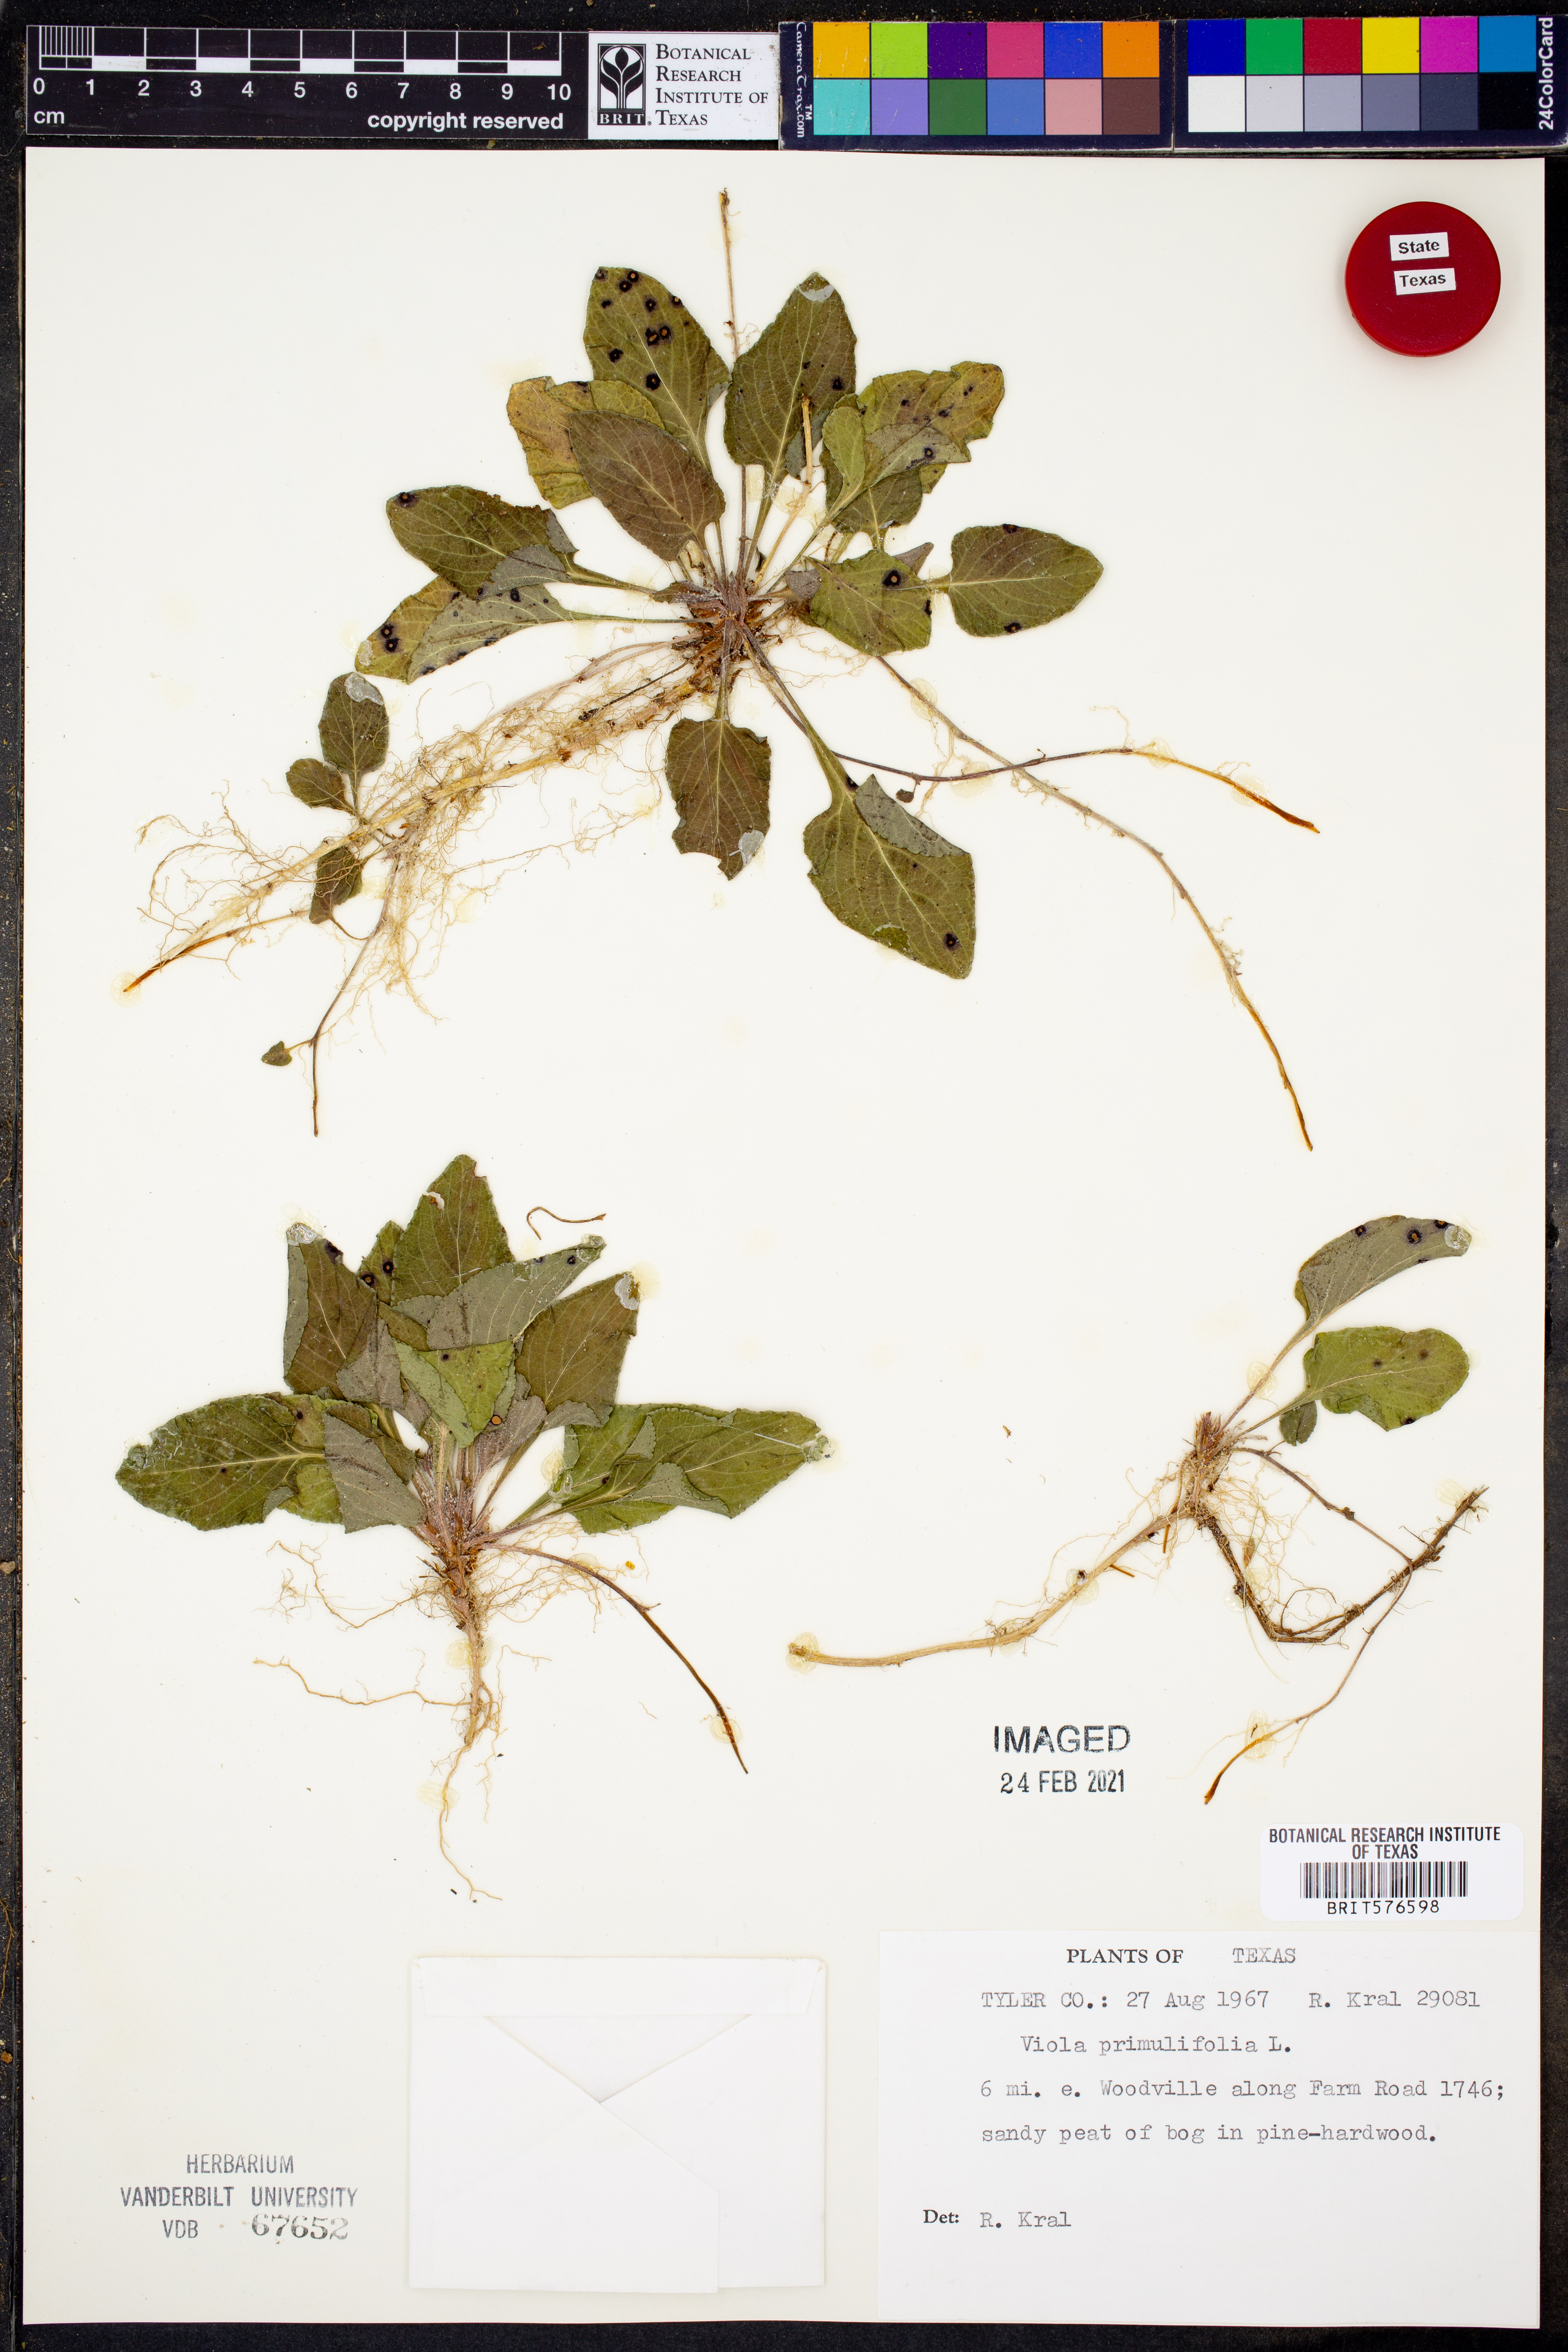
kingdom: Plantae
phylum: Tracheophyta
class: Magnoliopsida
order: Malpighiales
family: Violaceae
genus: Viola
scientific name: Viola primulifolia
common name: Primrose-leaf violet
